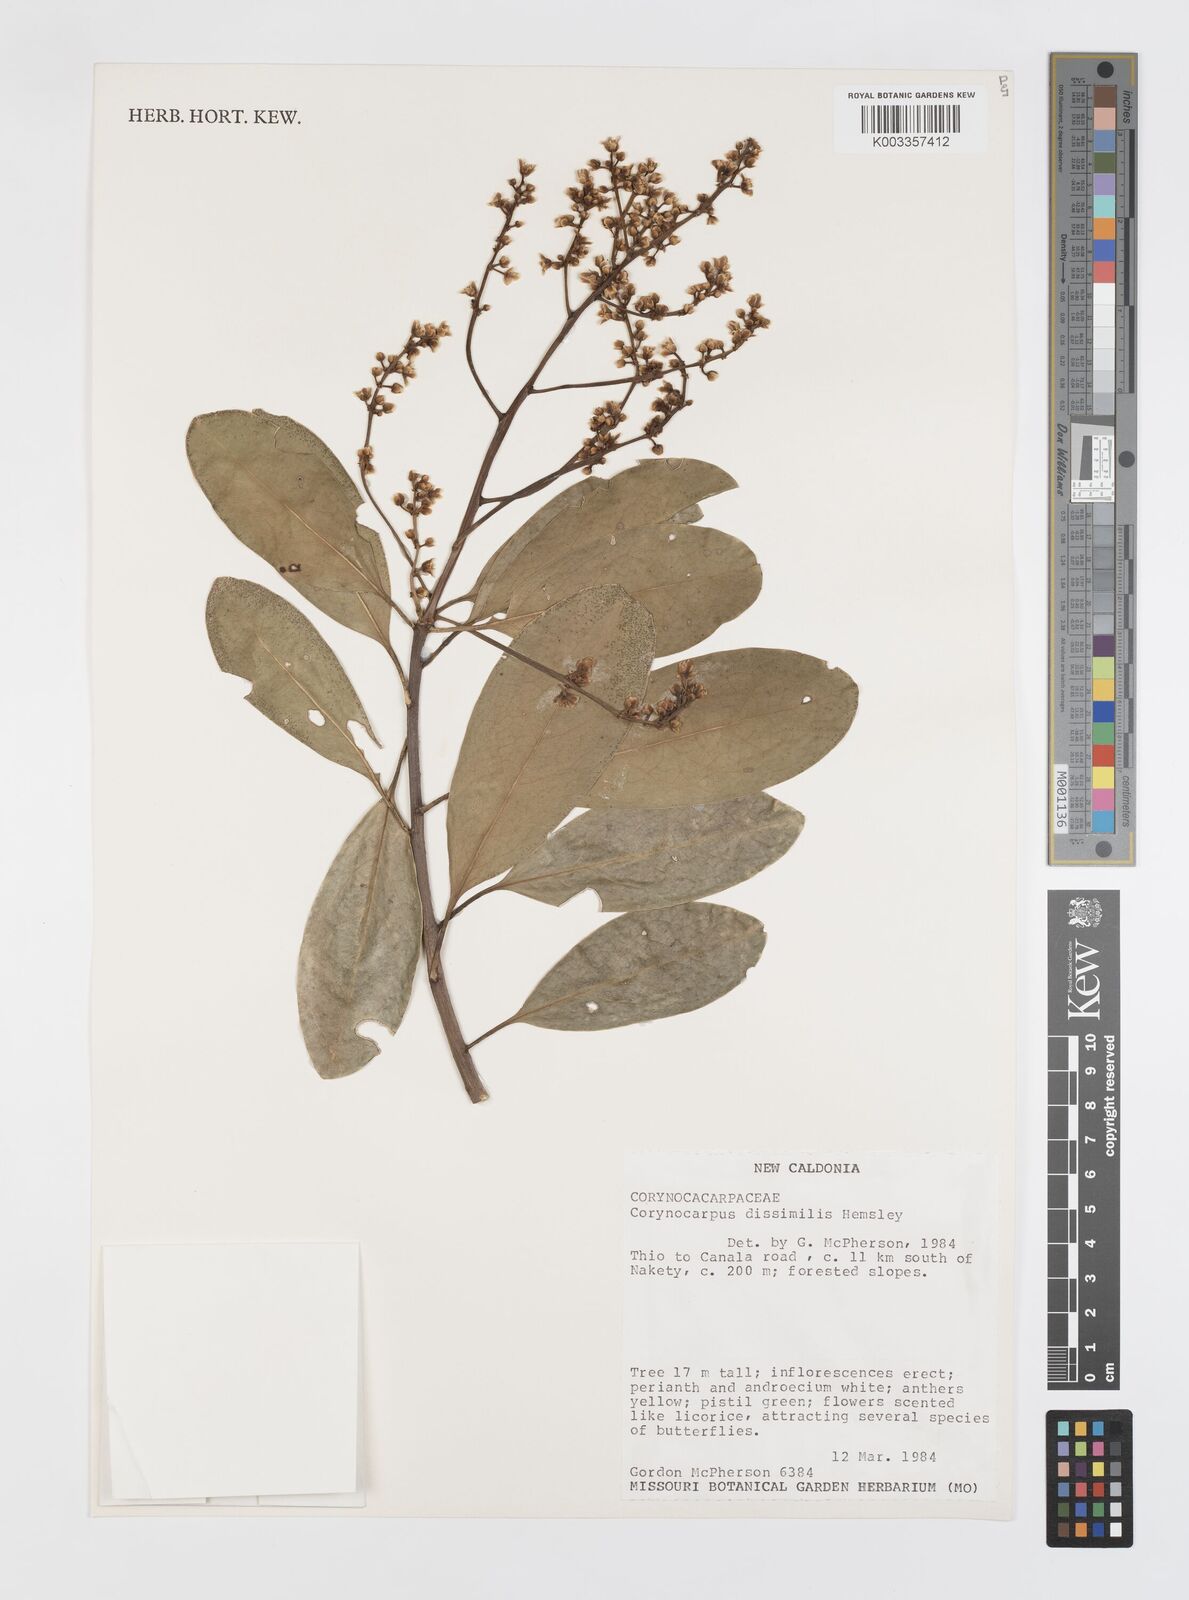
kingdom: Plantae
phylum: Tracheophyta
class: Magnoliopsida
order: Cucurbitales
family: Corynocarpaceae
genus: Corynocarpus
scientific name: Corynocarpus dissimilis
